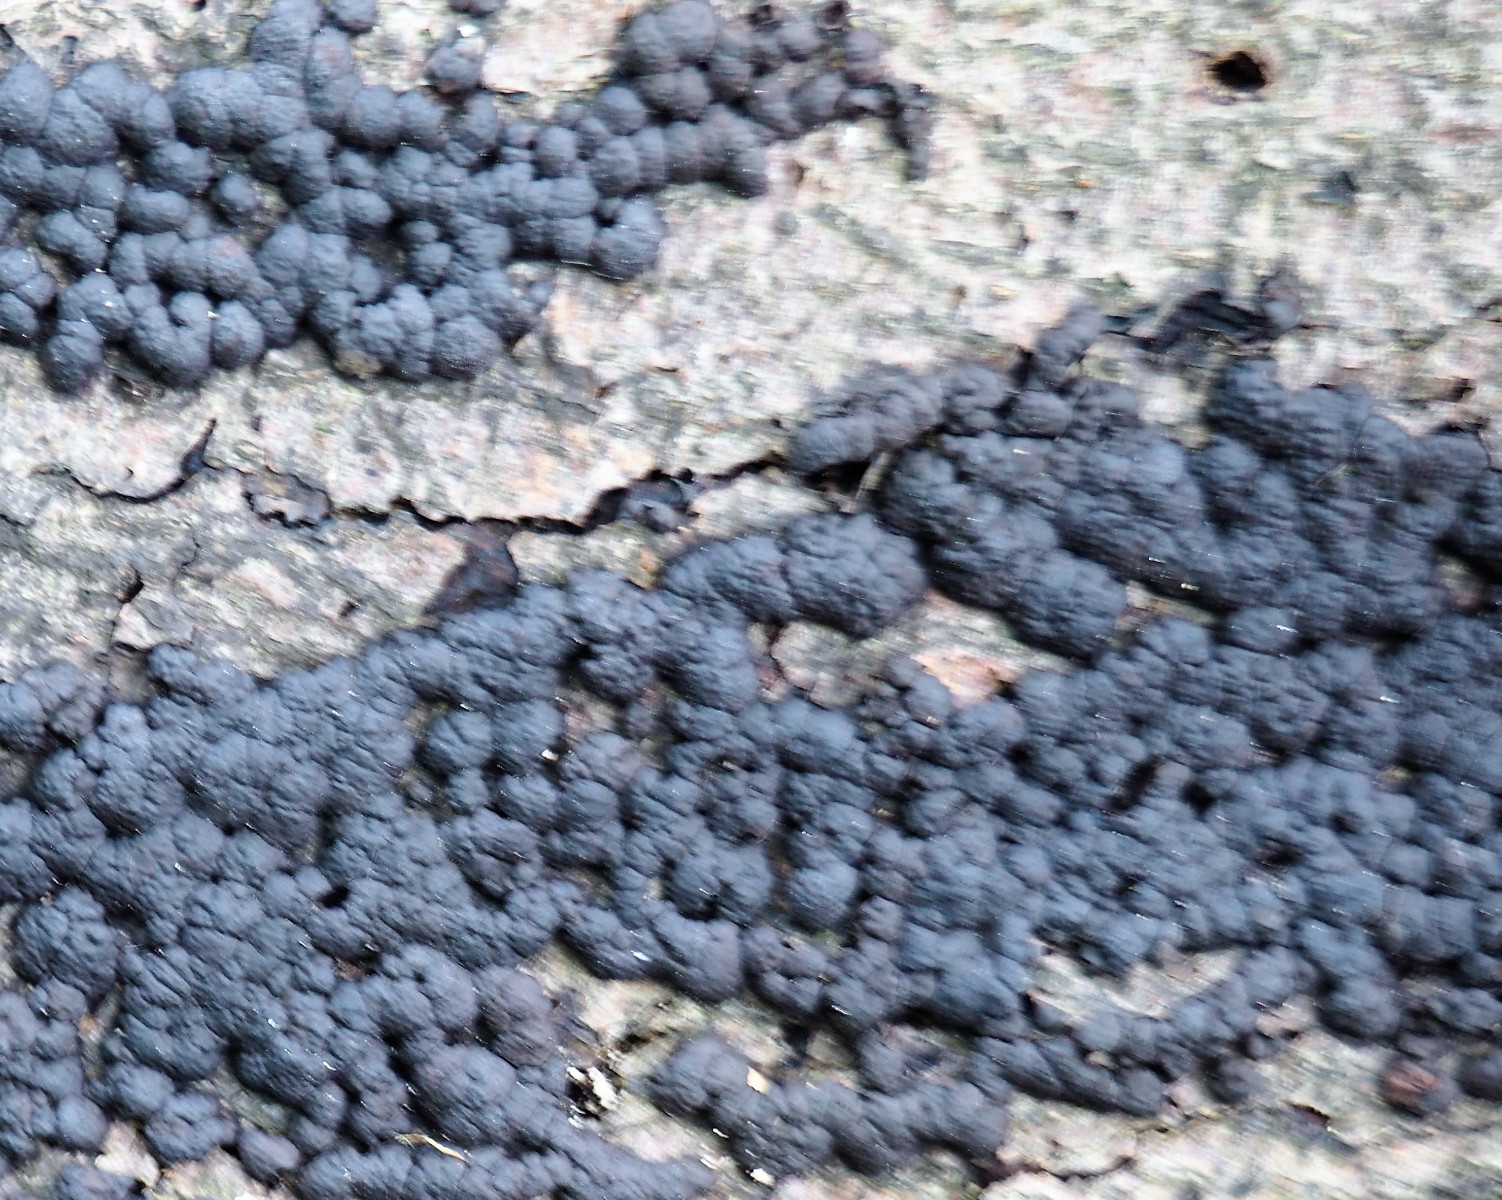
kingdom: Fungi
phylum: Ascomycota
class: Sordariomycetes
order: Xylariales
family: Hypoxylaceae
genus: Jackrogersella
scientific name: Jackrogersella cohaerens
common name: sammenflydende kulbær
